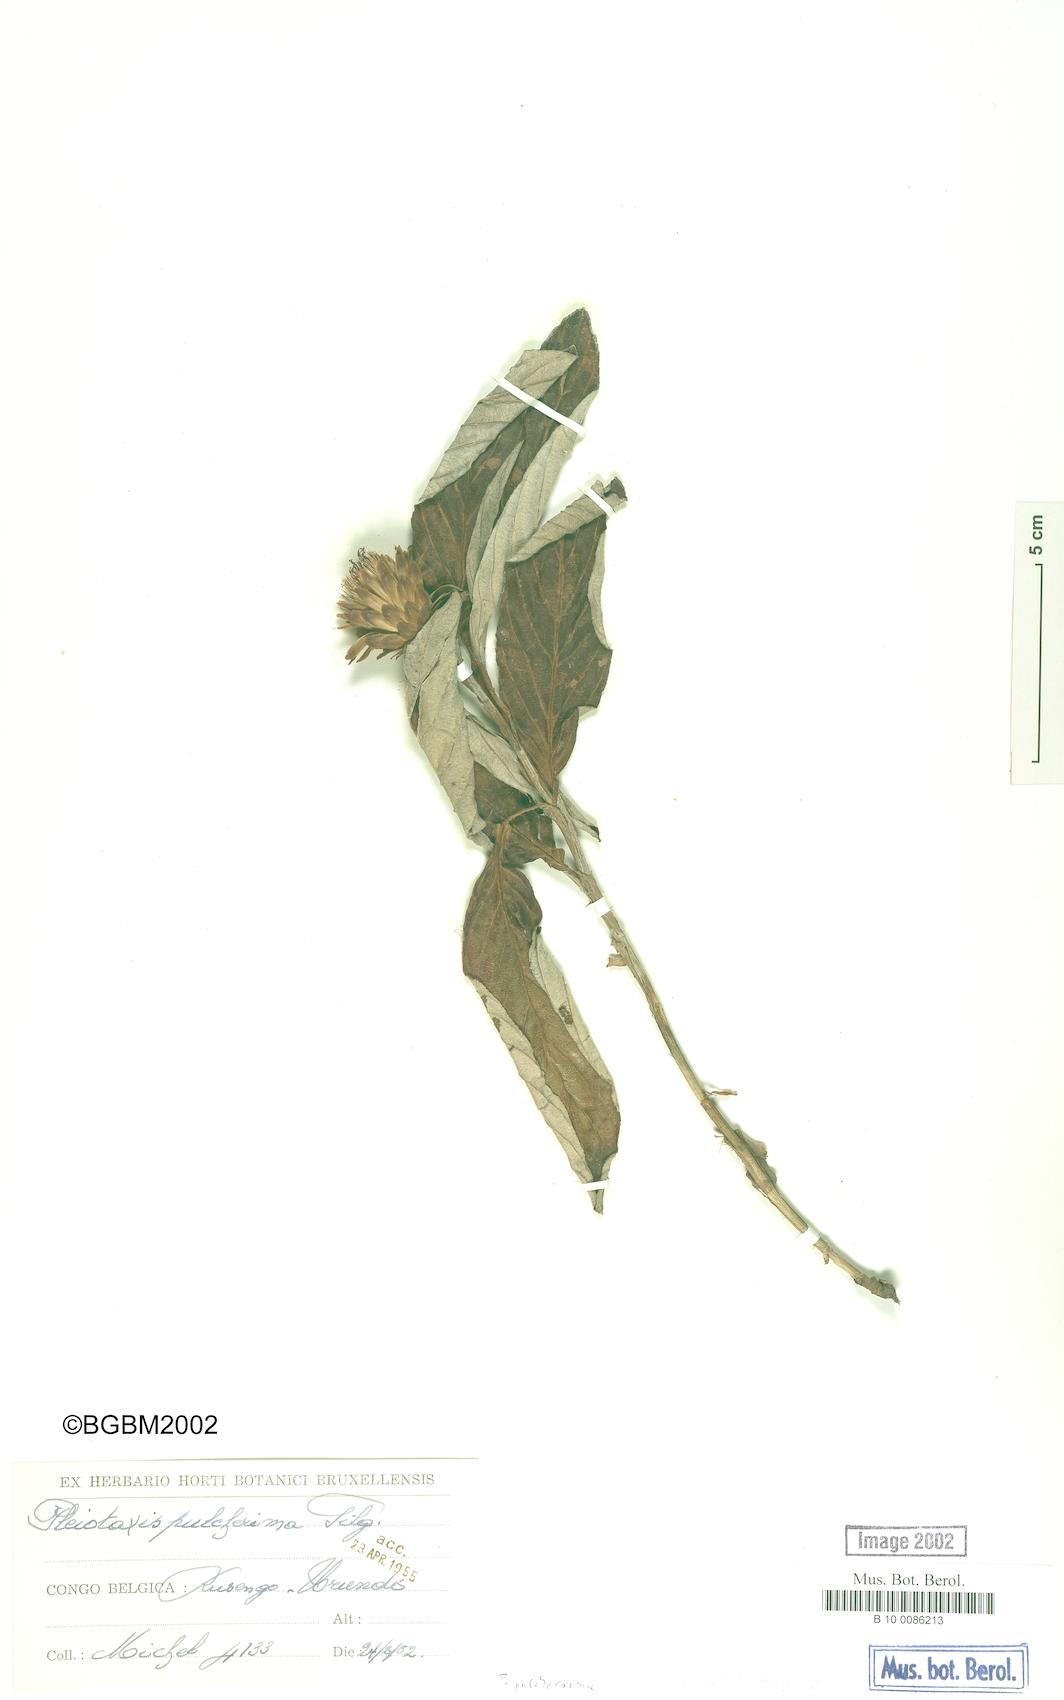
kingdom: Plantae
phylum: Tracheophyta
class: Magnoliopsida
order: Asterales
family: Asteraceae
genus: Pleiotaxis
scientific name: Pleiotaxis pulcherrima
